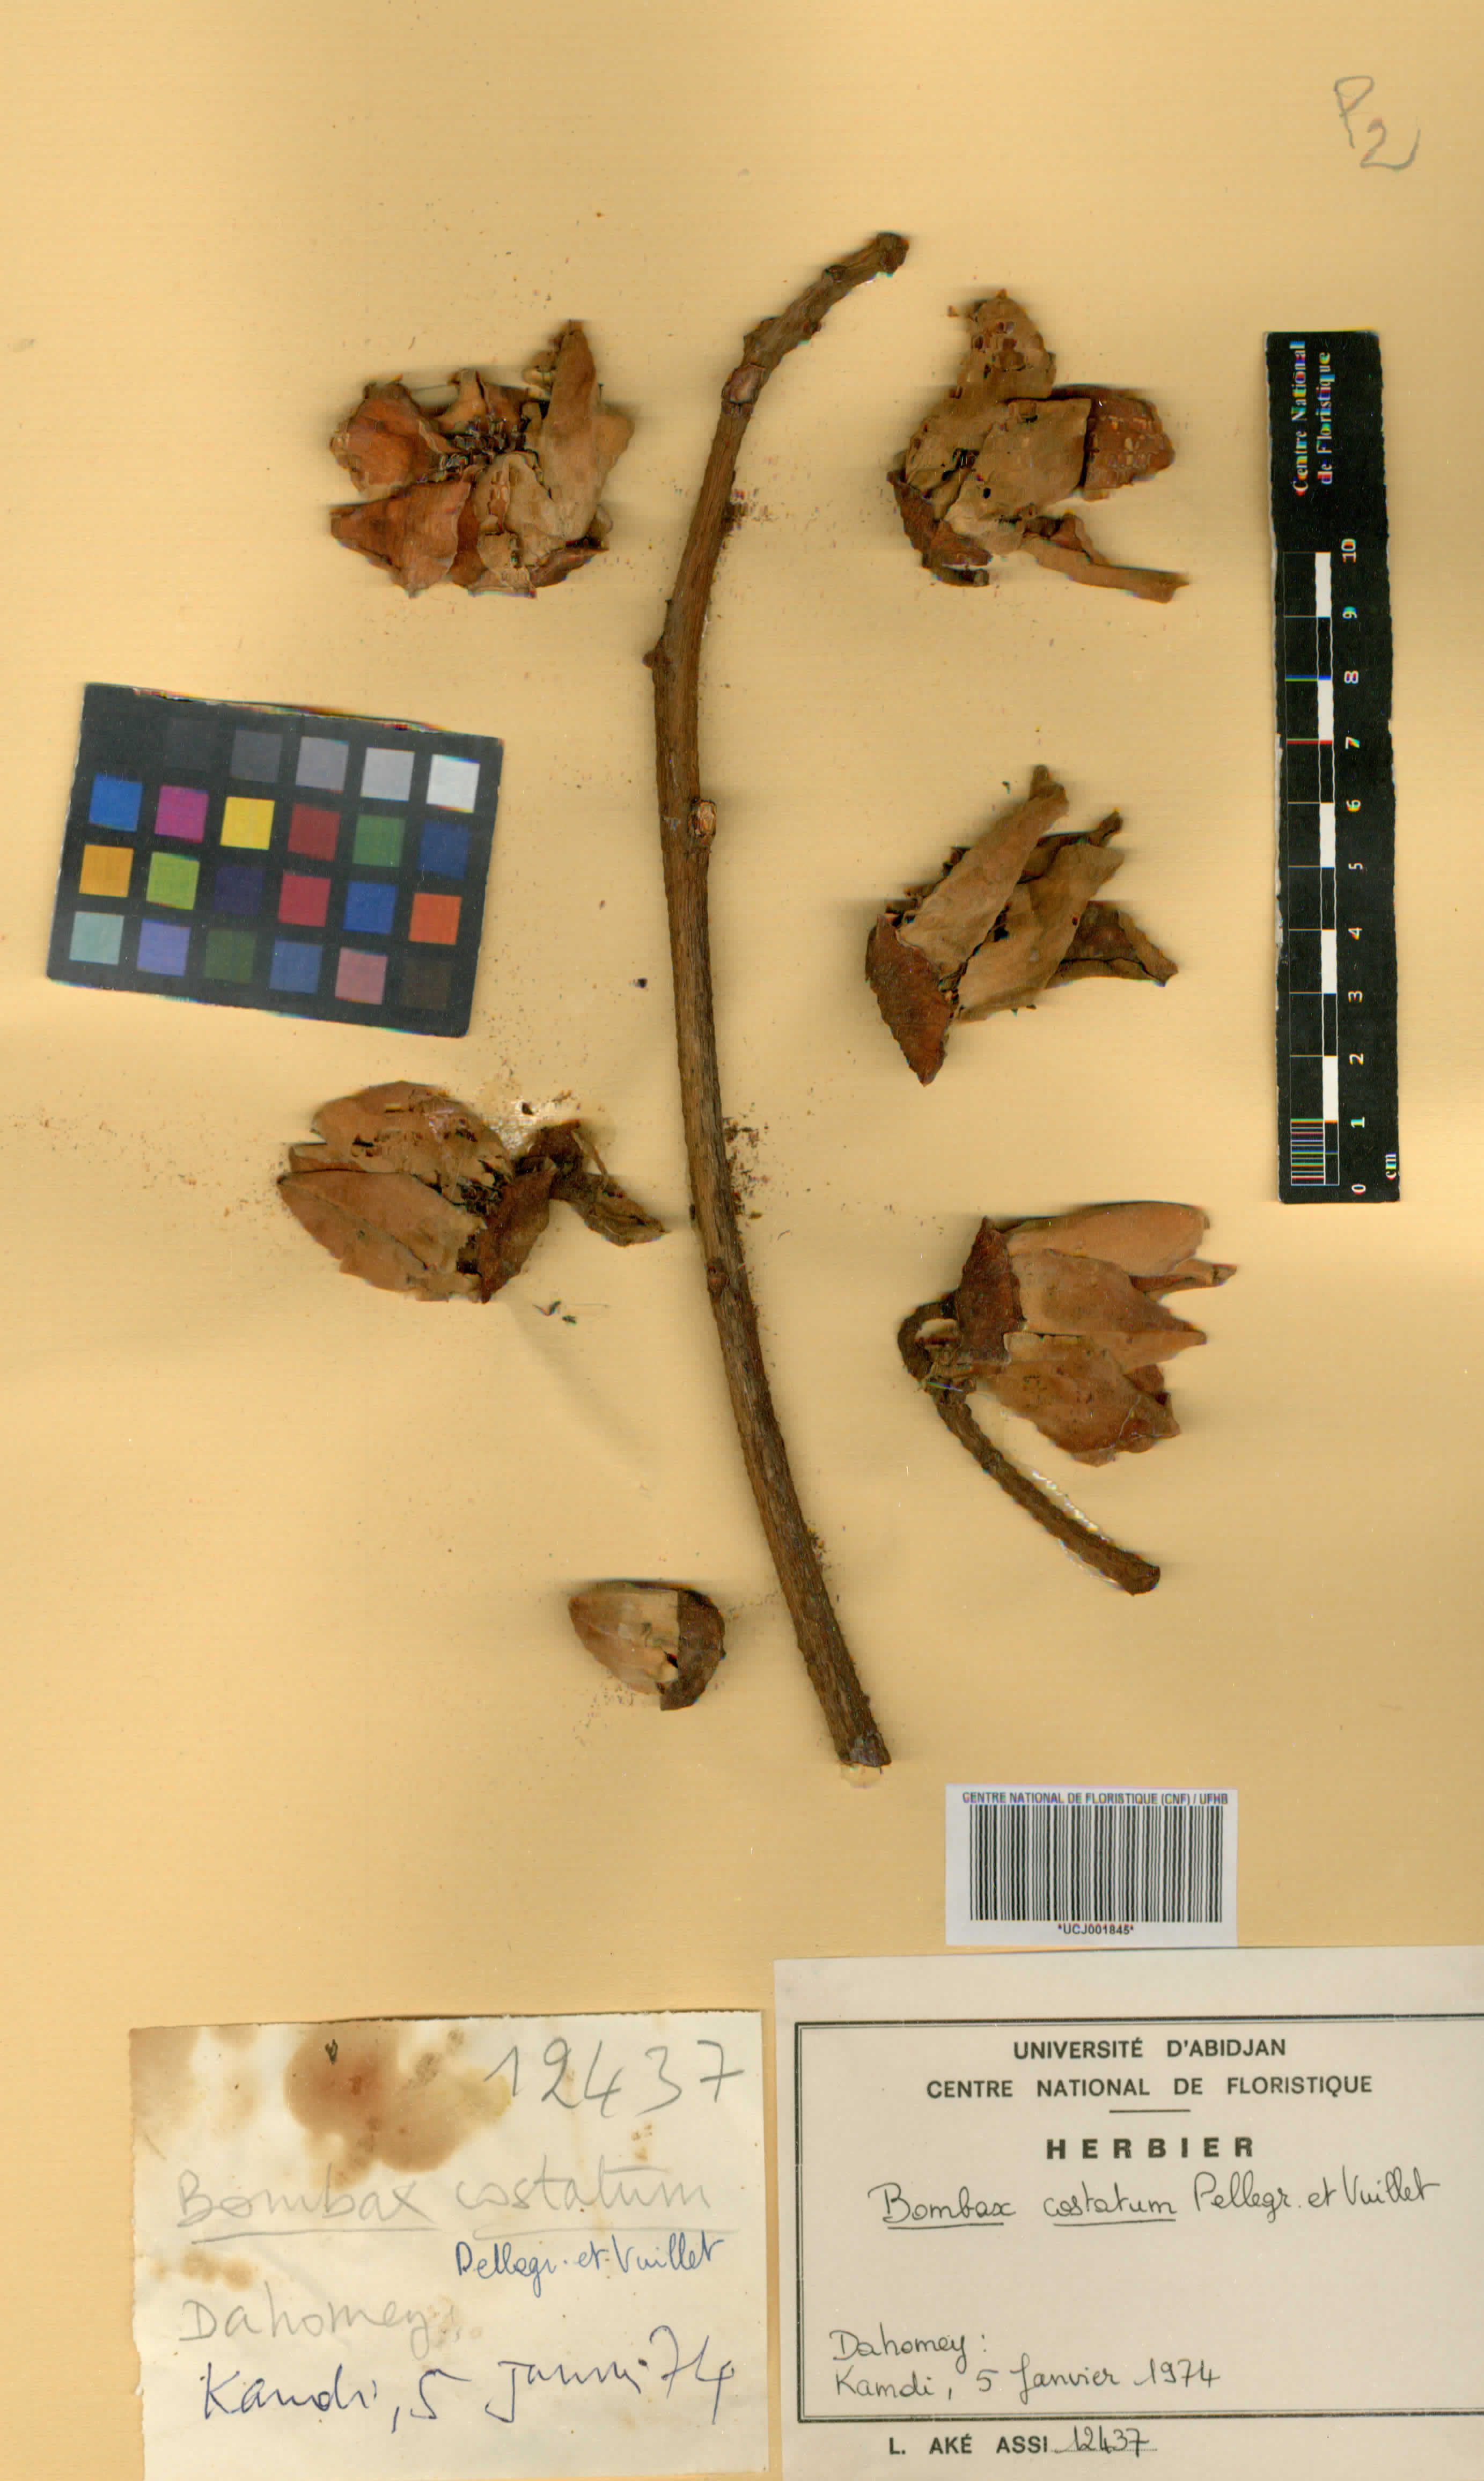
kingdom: Plantae
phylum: Tracheophyta
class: Magnoliopsida
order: Malvales
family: Malvaceae
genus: Bombax
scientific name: Bombax costatum
